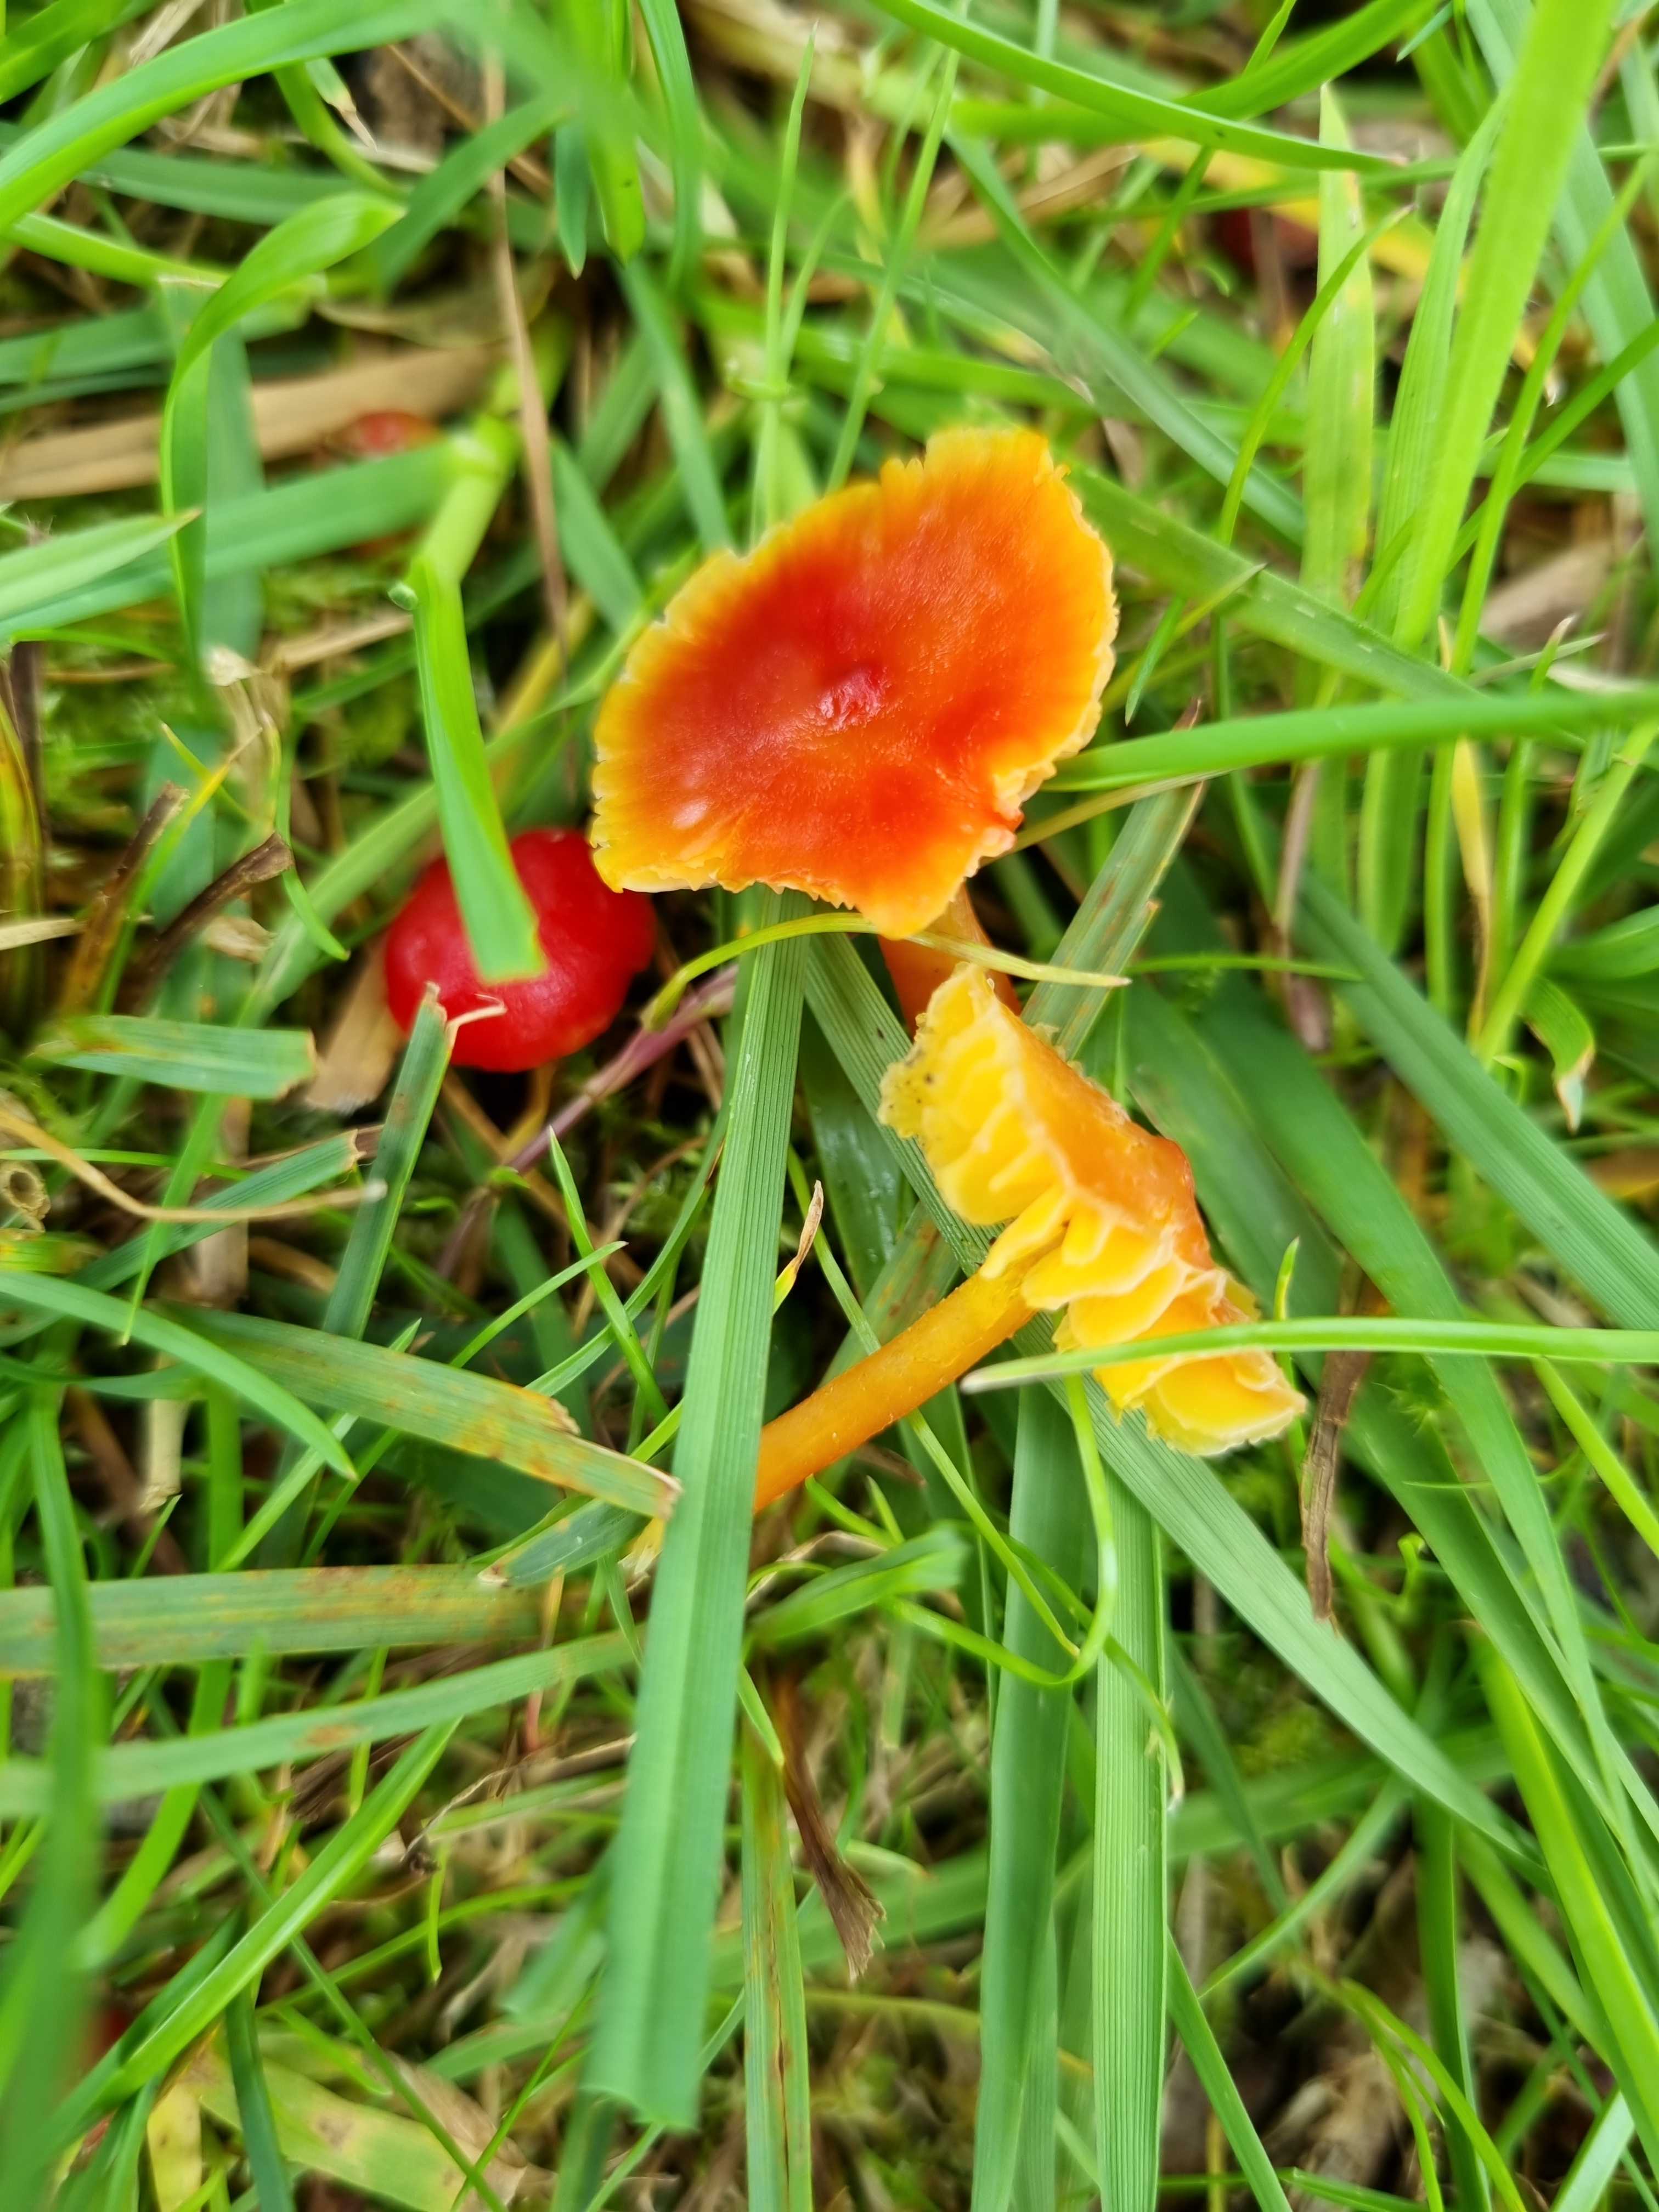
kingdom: Fungi
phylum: Basidiomycota
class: Agaricomycetes
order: Agaricales
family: Hygrophoraceae
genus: Hygrocybe
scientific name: Hygrocybe subpapillata
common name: papil-vokshat
